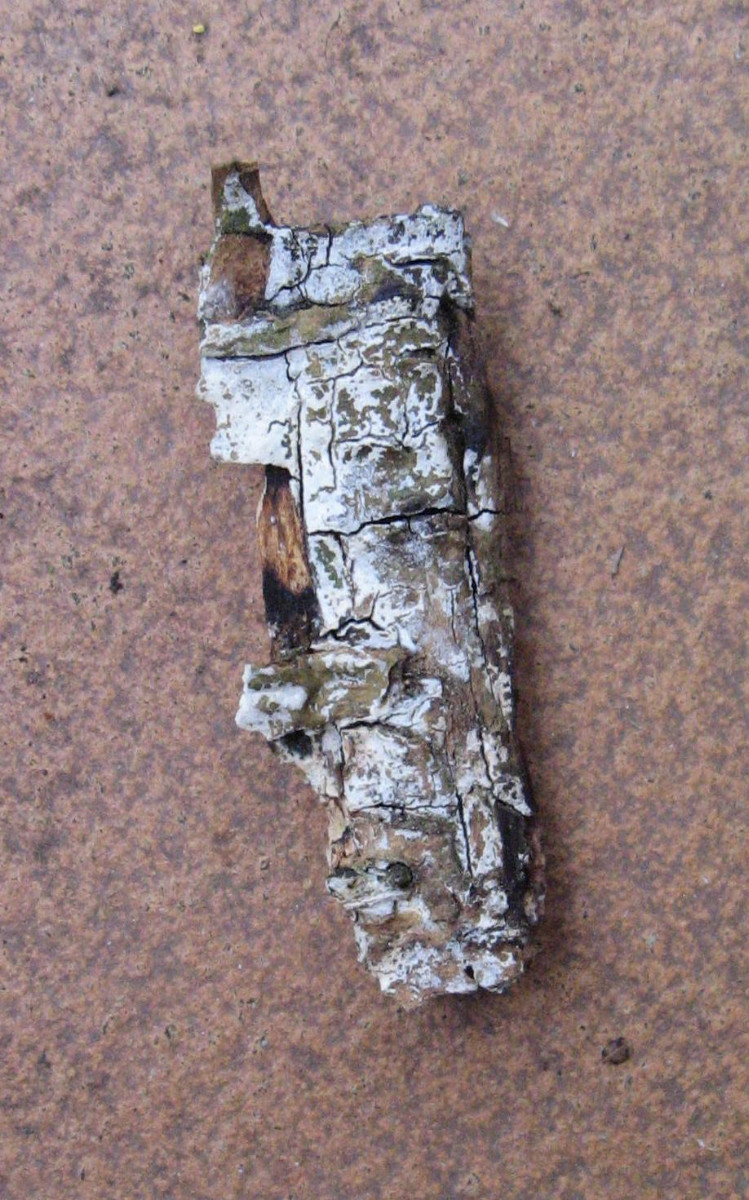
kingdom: Fungi
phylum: Basidiomycota
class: Agaricomycetes
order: Corticiales
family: Corticiaceae
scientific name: Corticiaceae
